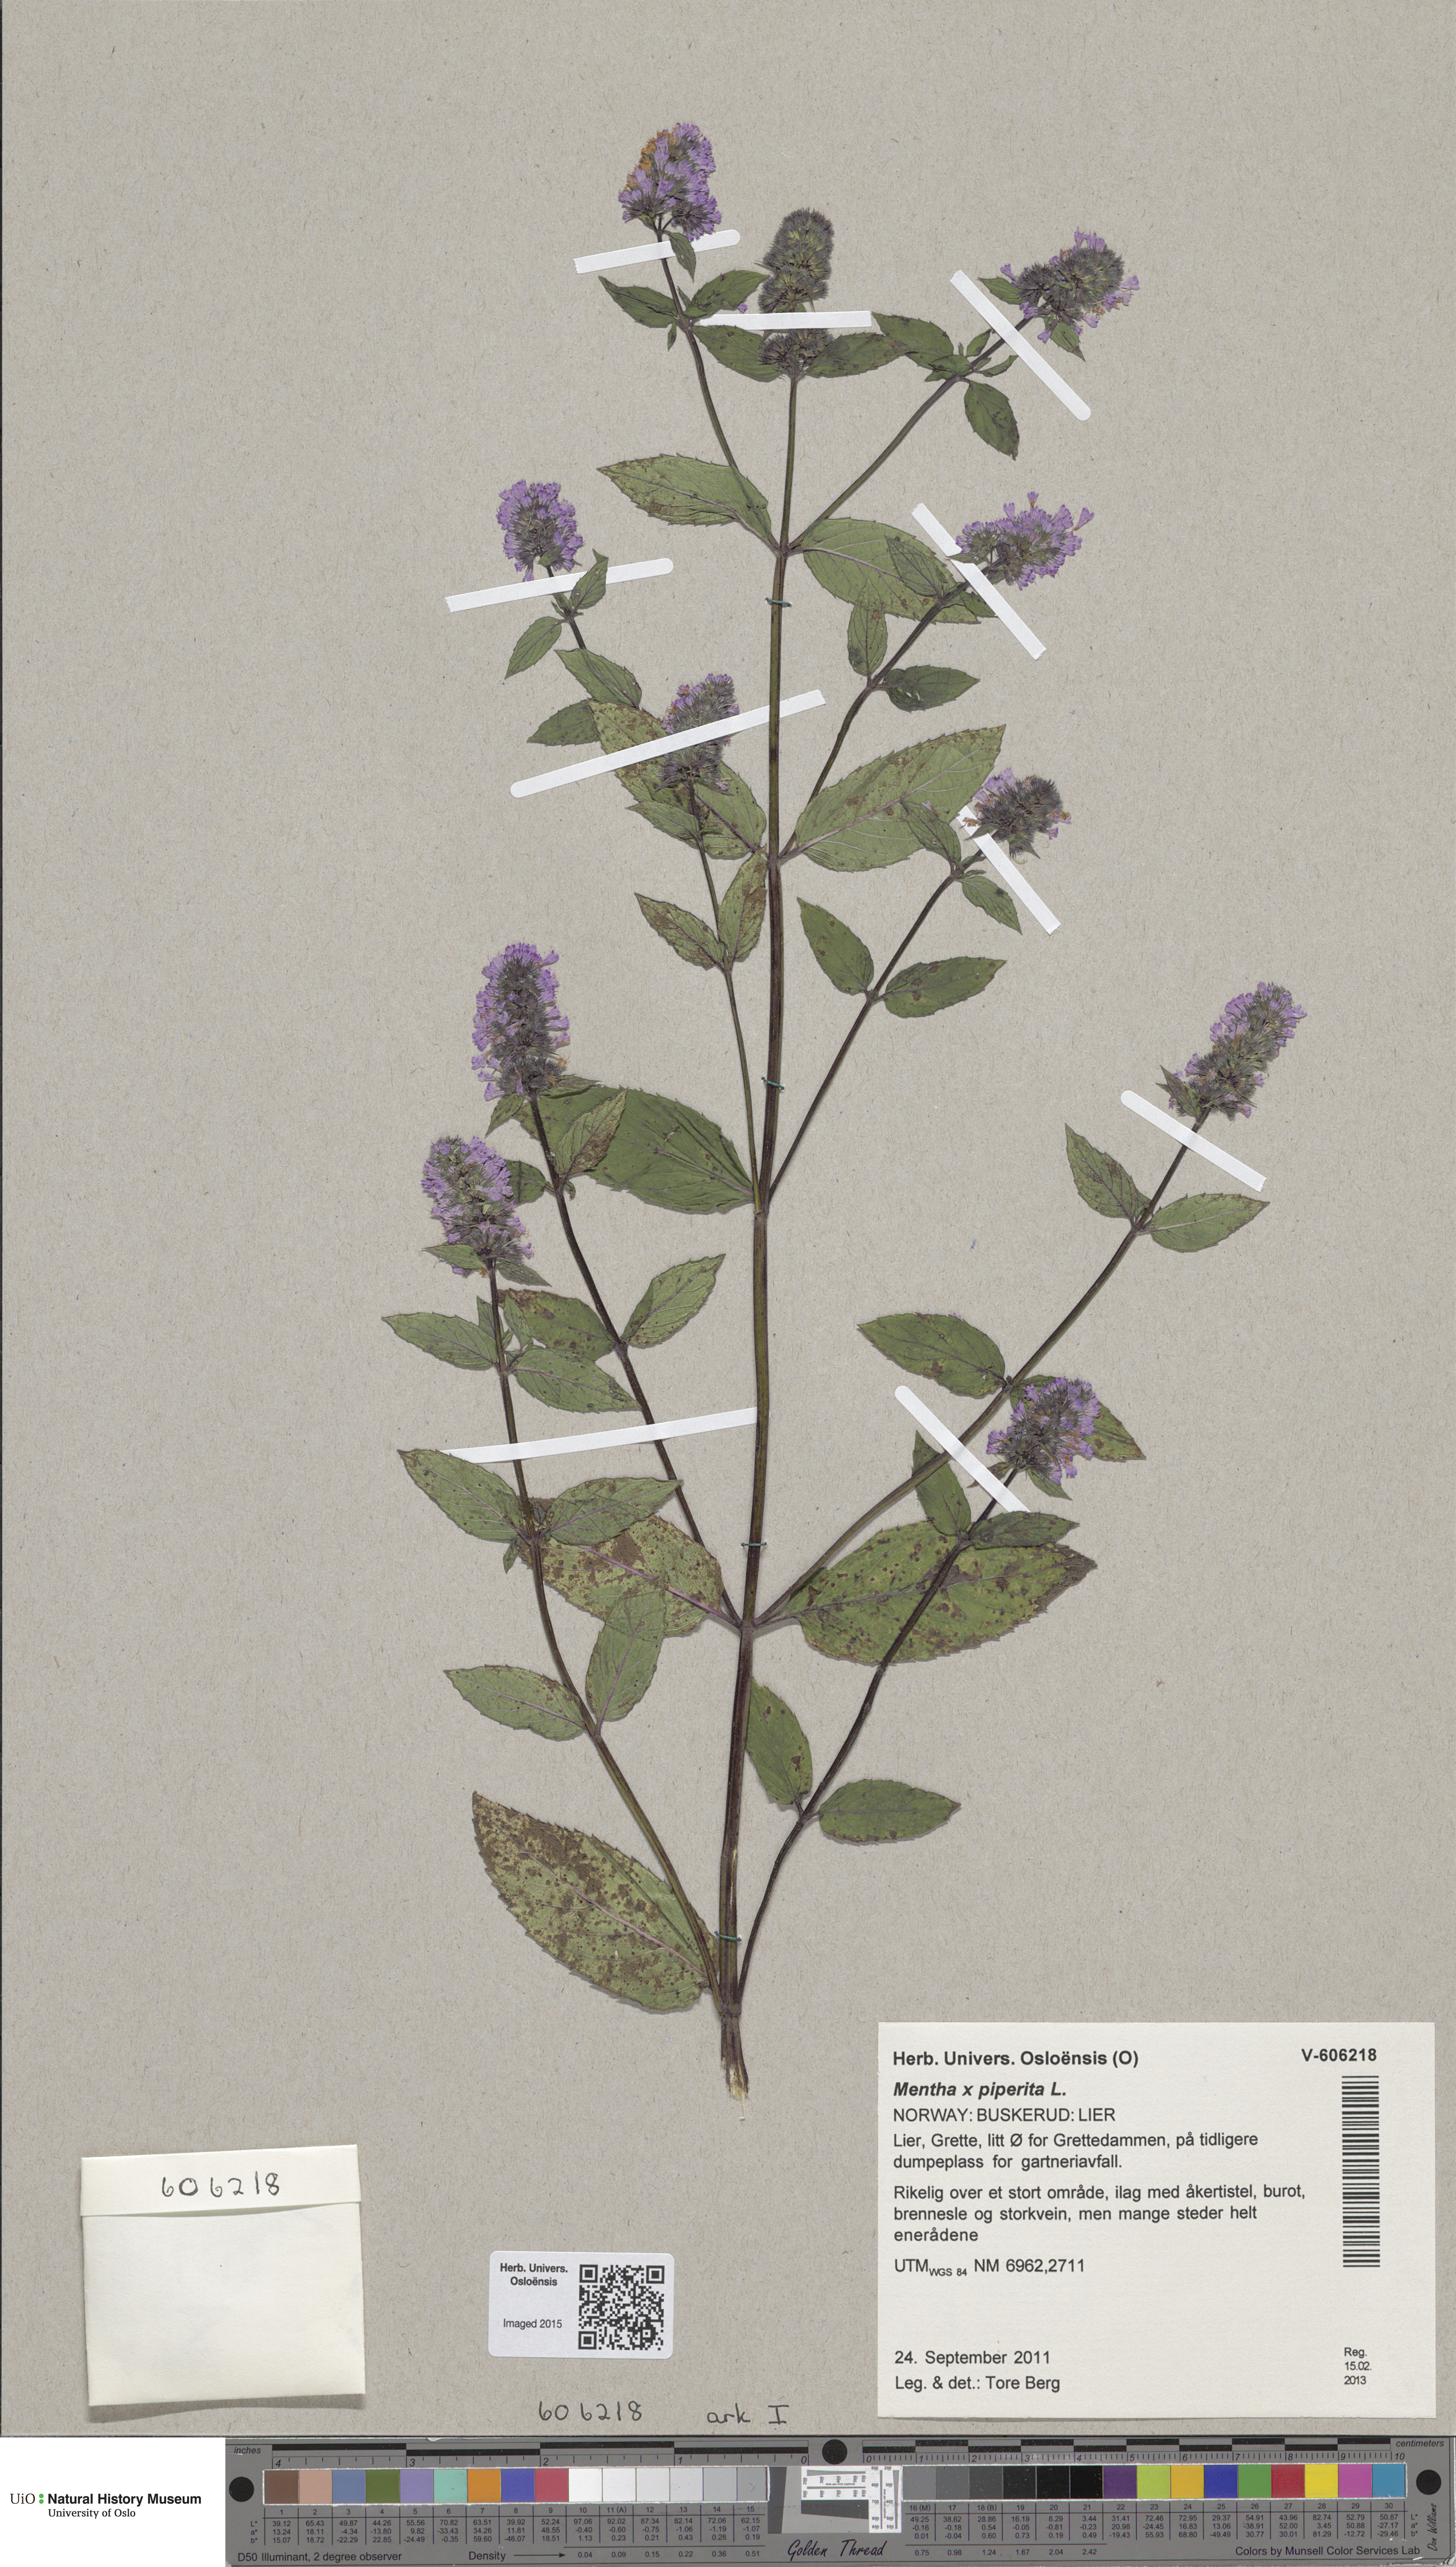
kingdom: Plantae
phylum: Tracheophyta
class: Magnoliopsida
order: Lamiales
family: Lamiaceae
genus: Mentha
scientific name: Mentha piperita
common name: Peppermint
